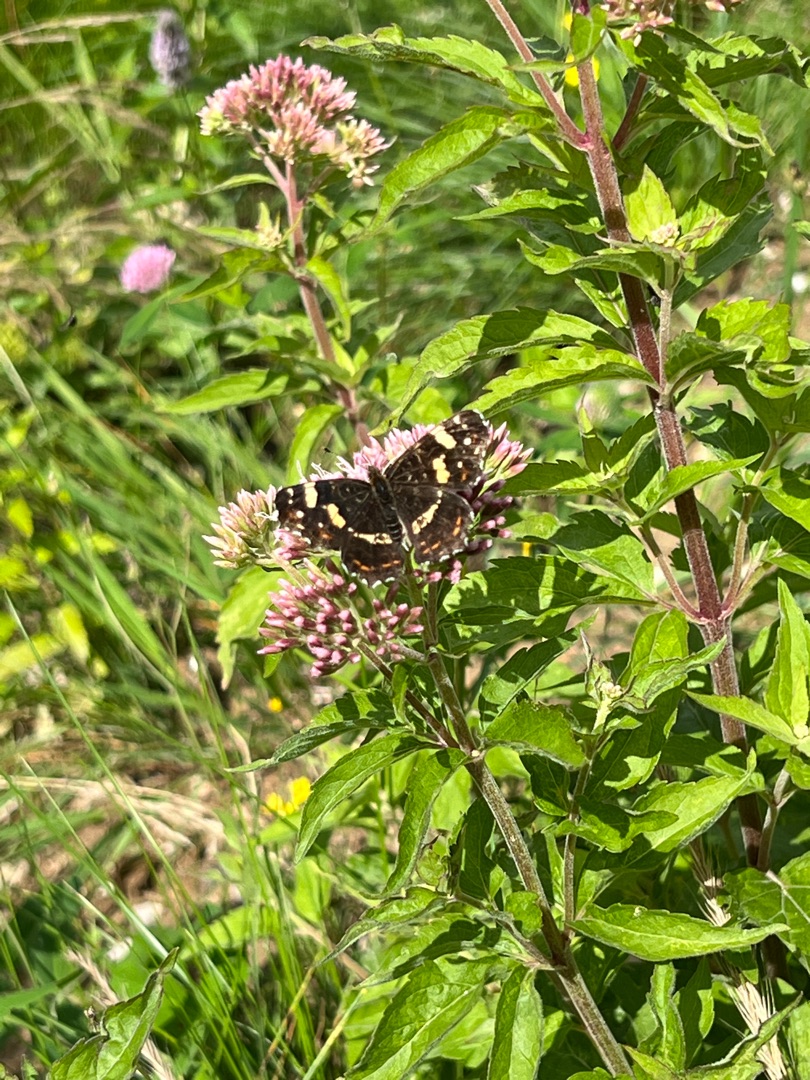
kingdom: Animalia
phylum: Arthropoda
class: Insecta
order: Lepidoptera
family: Nymphalidae
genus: Araschnia
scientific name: Araschnia levana
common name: Nældesommerfugl
